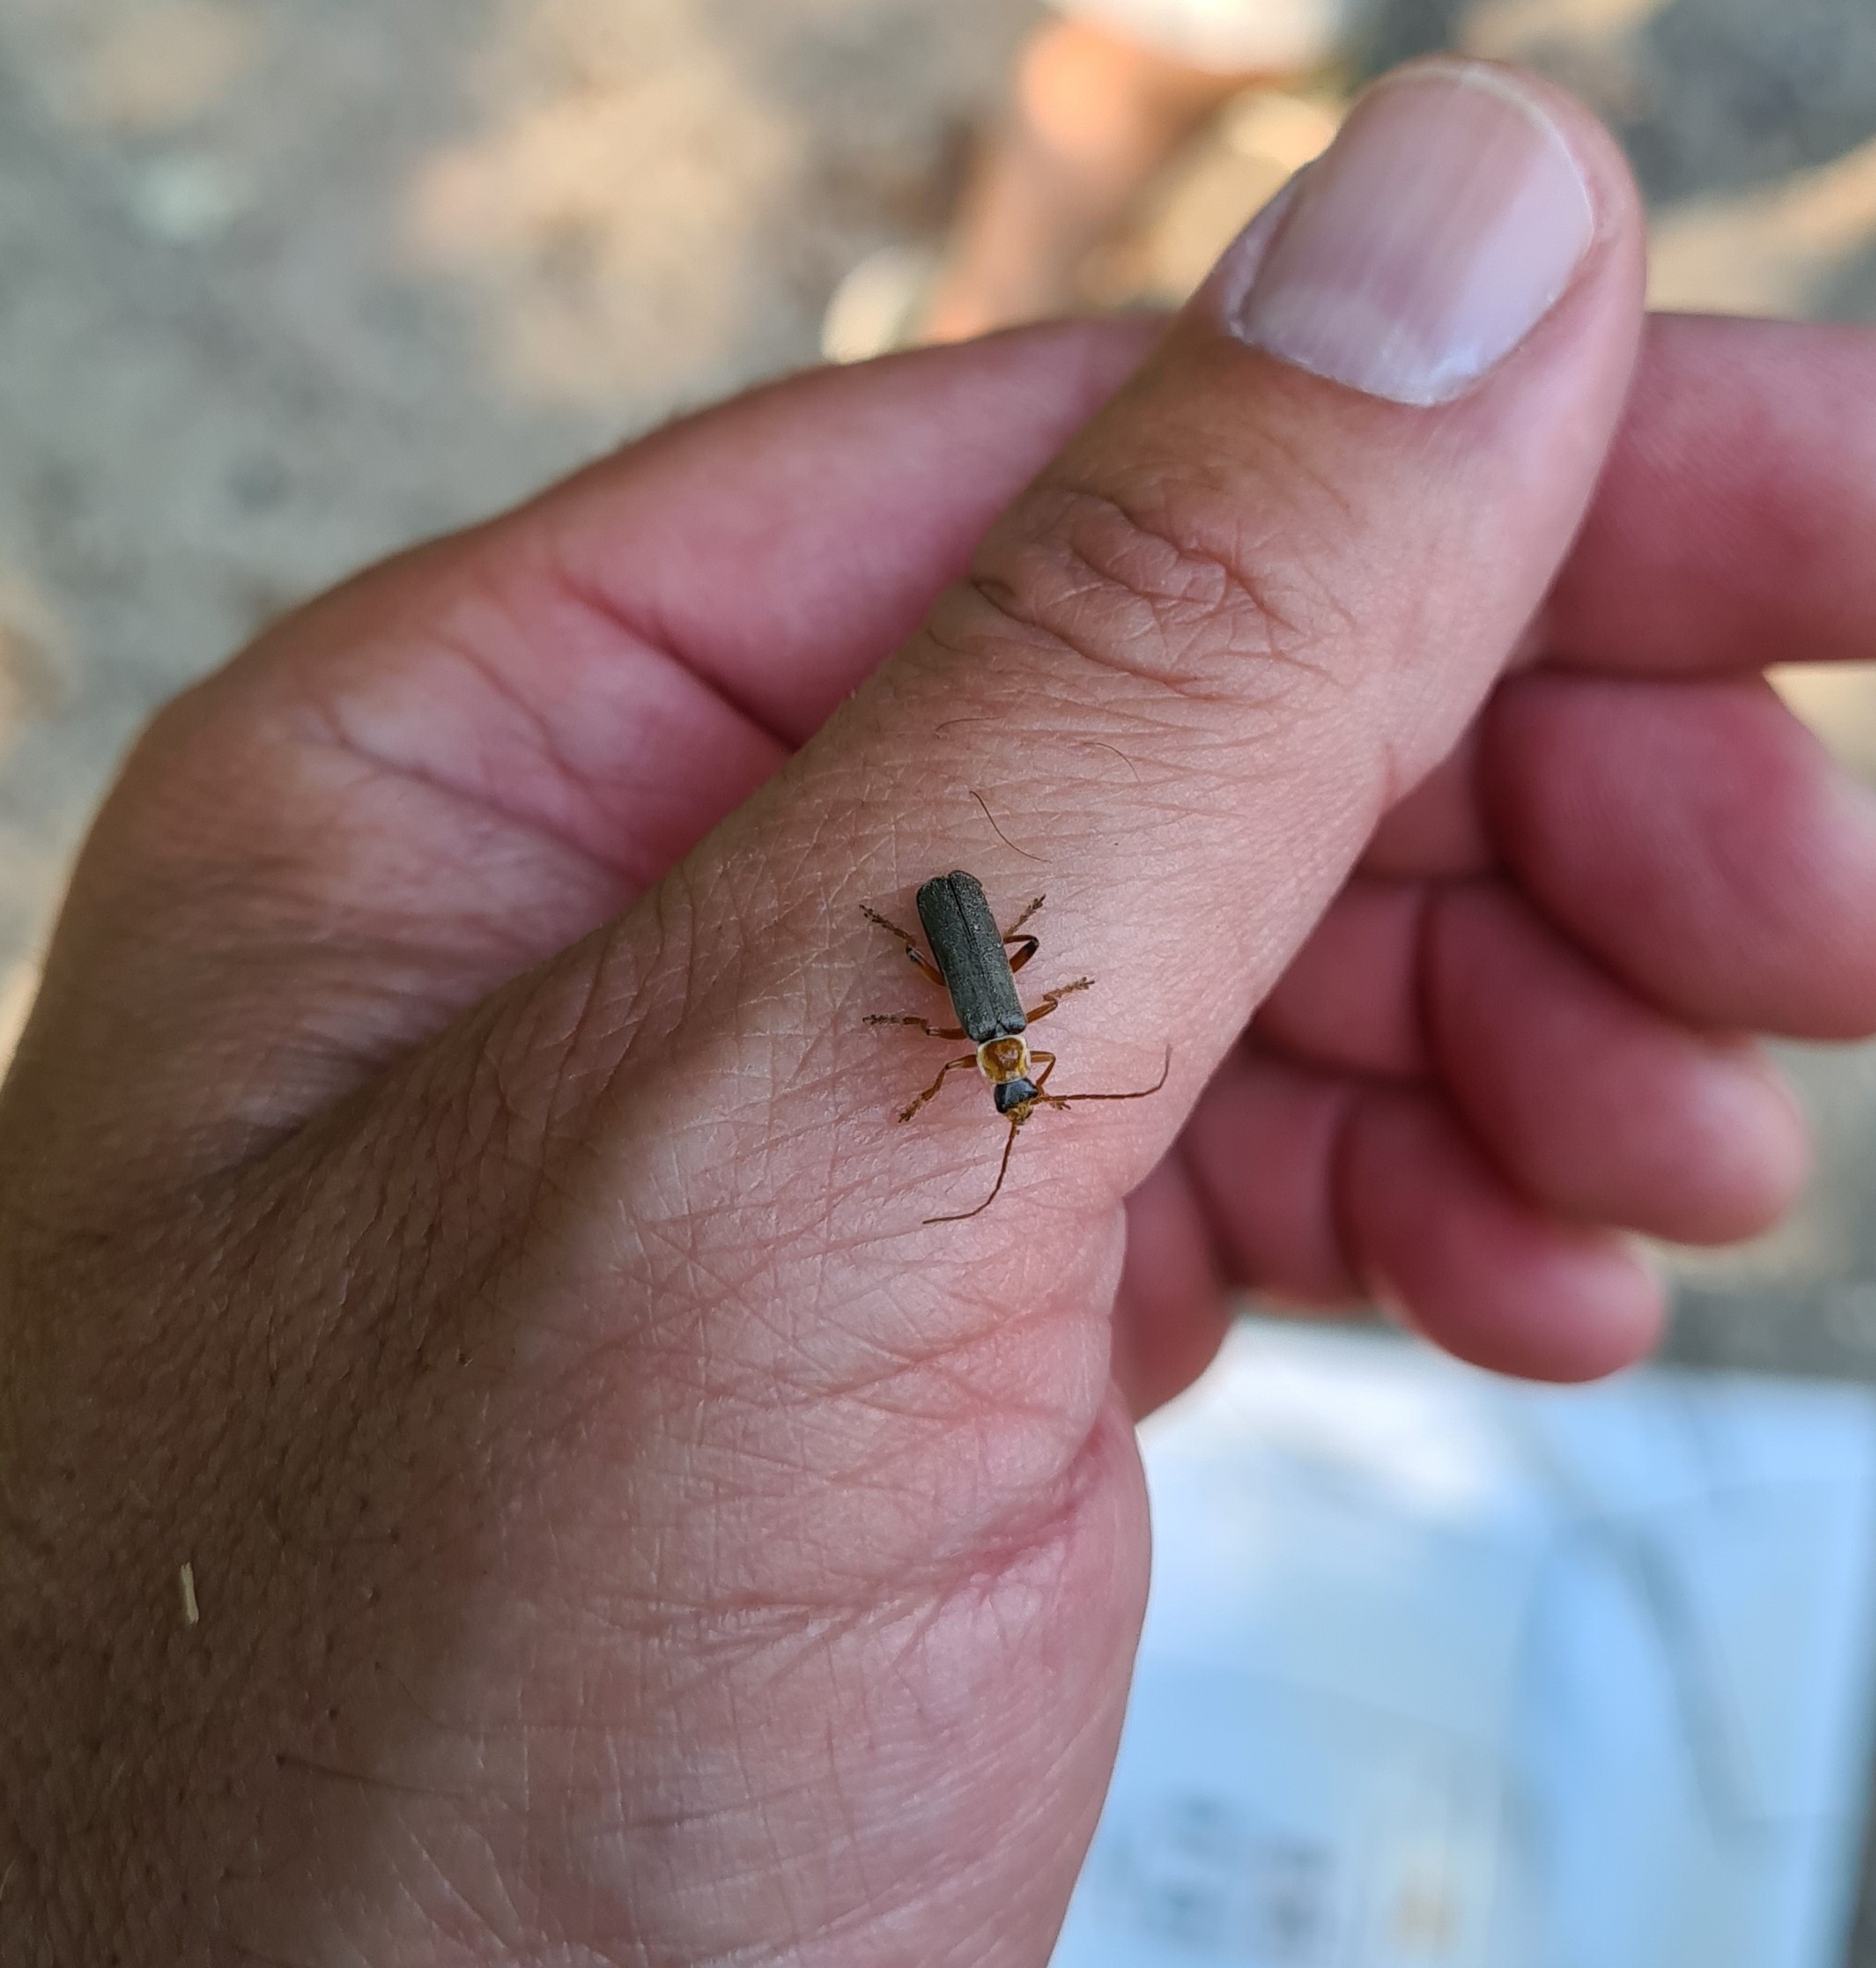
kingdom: Animalia
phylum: Arthropoda
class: Insecta
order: Coleoptera
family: Cantharidae
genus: Cantharis
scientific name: Cantharis nigricans
